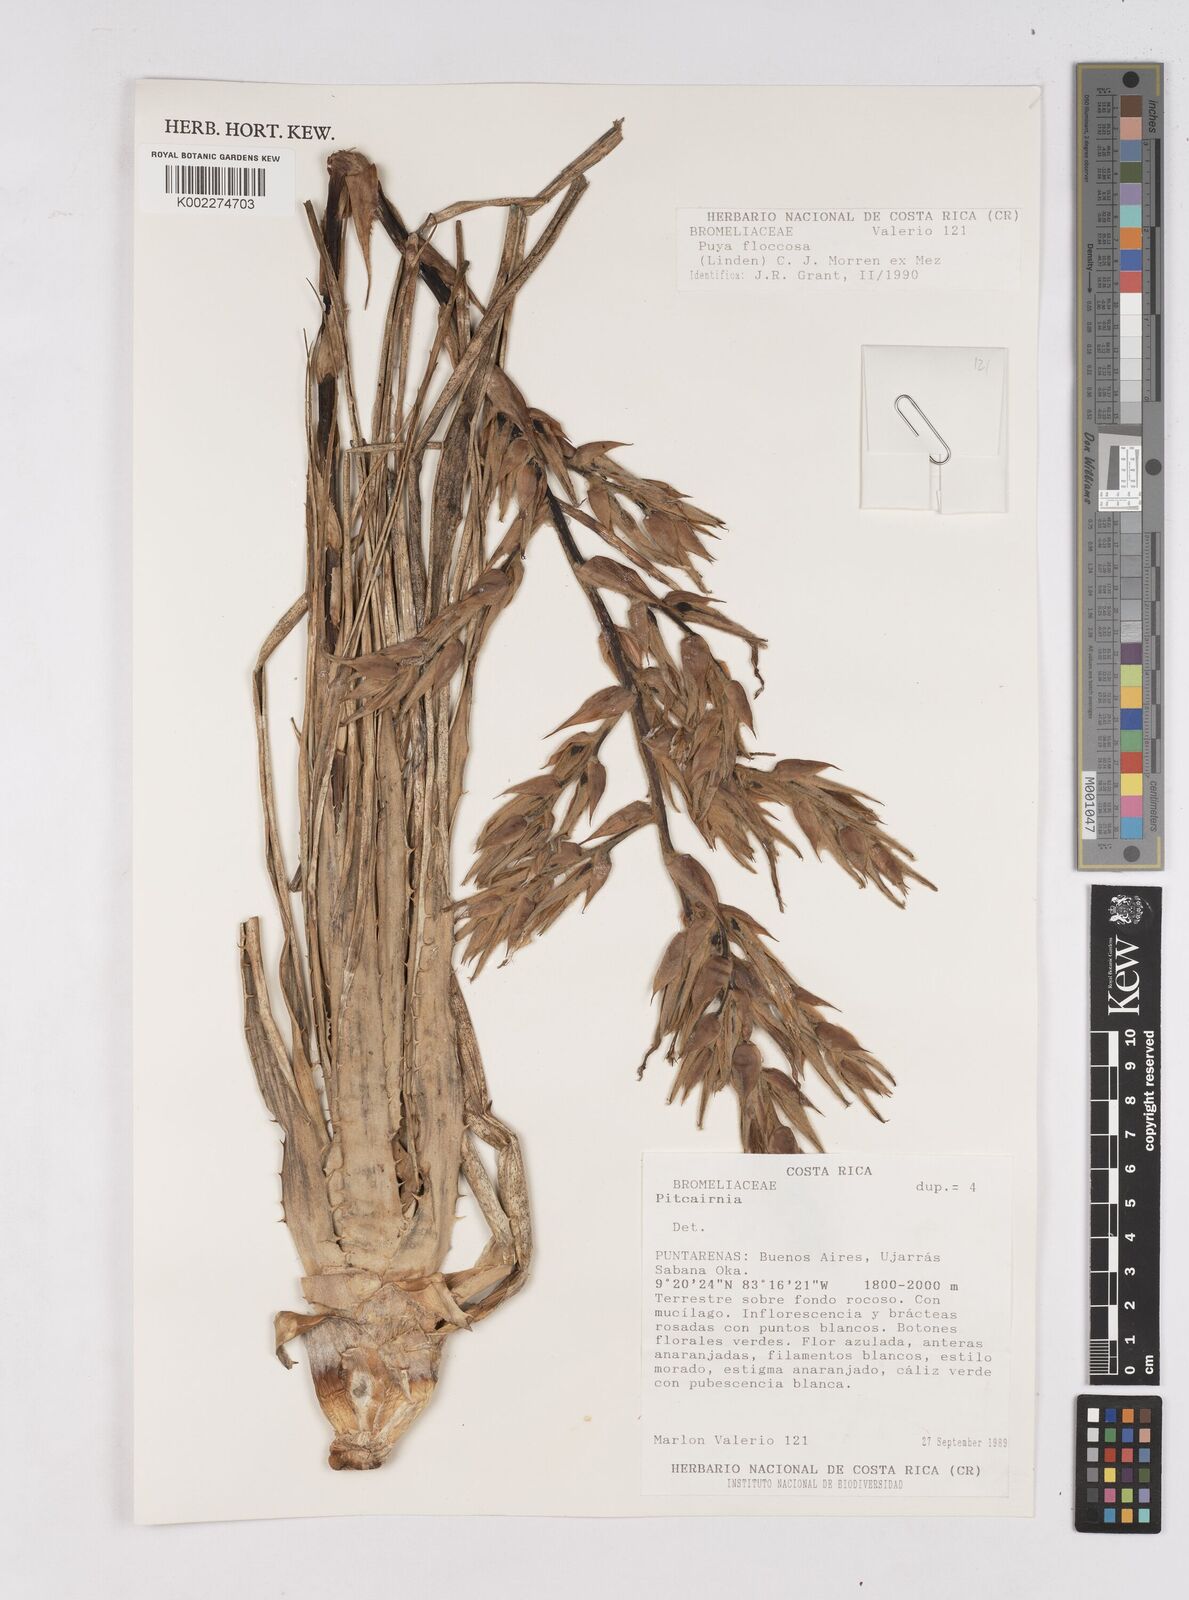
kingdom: Plantae
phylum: Tracheophyta
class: Liliopsida
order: Poales
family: Bromeliaceae
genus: Puya
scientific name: Puya floccosa
